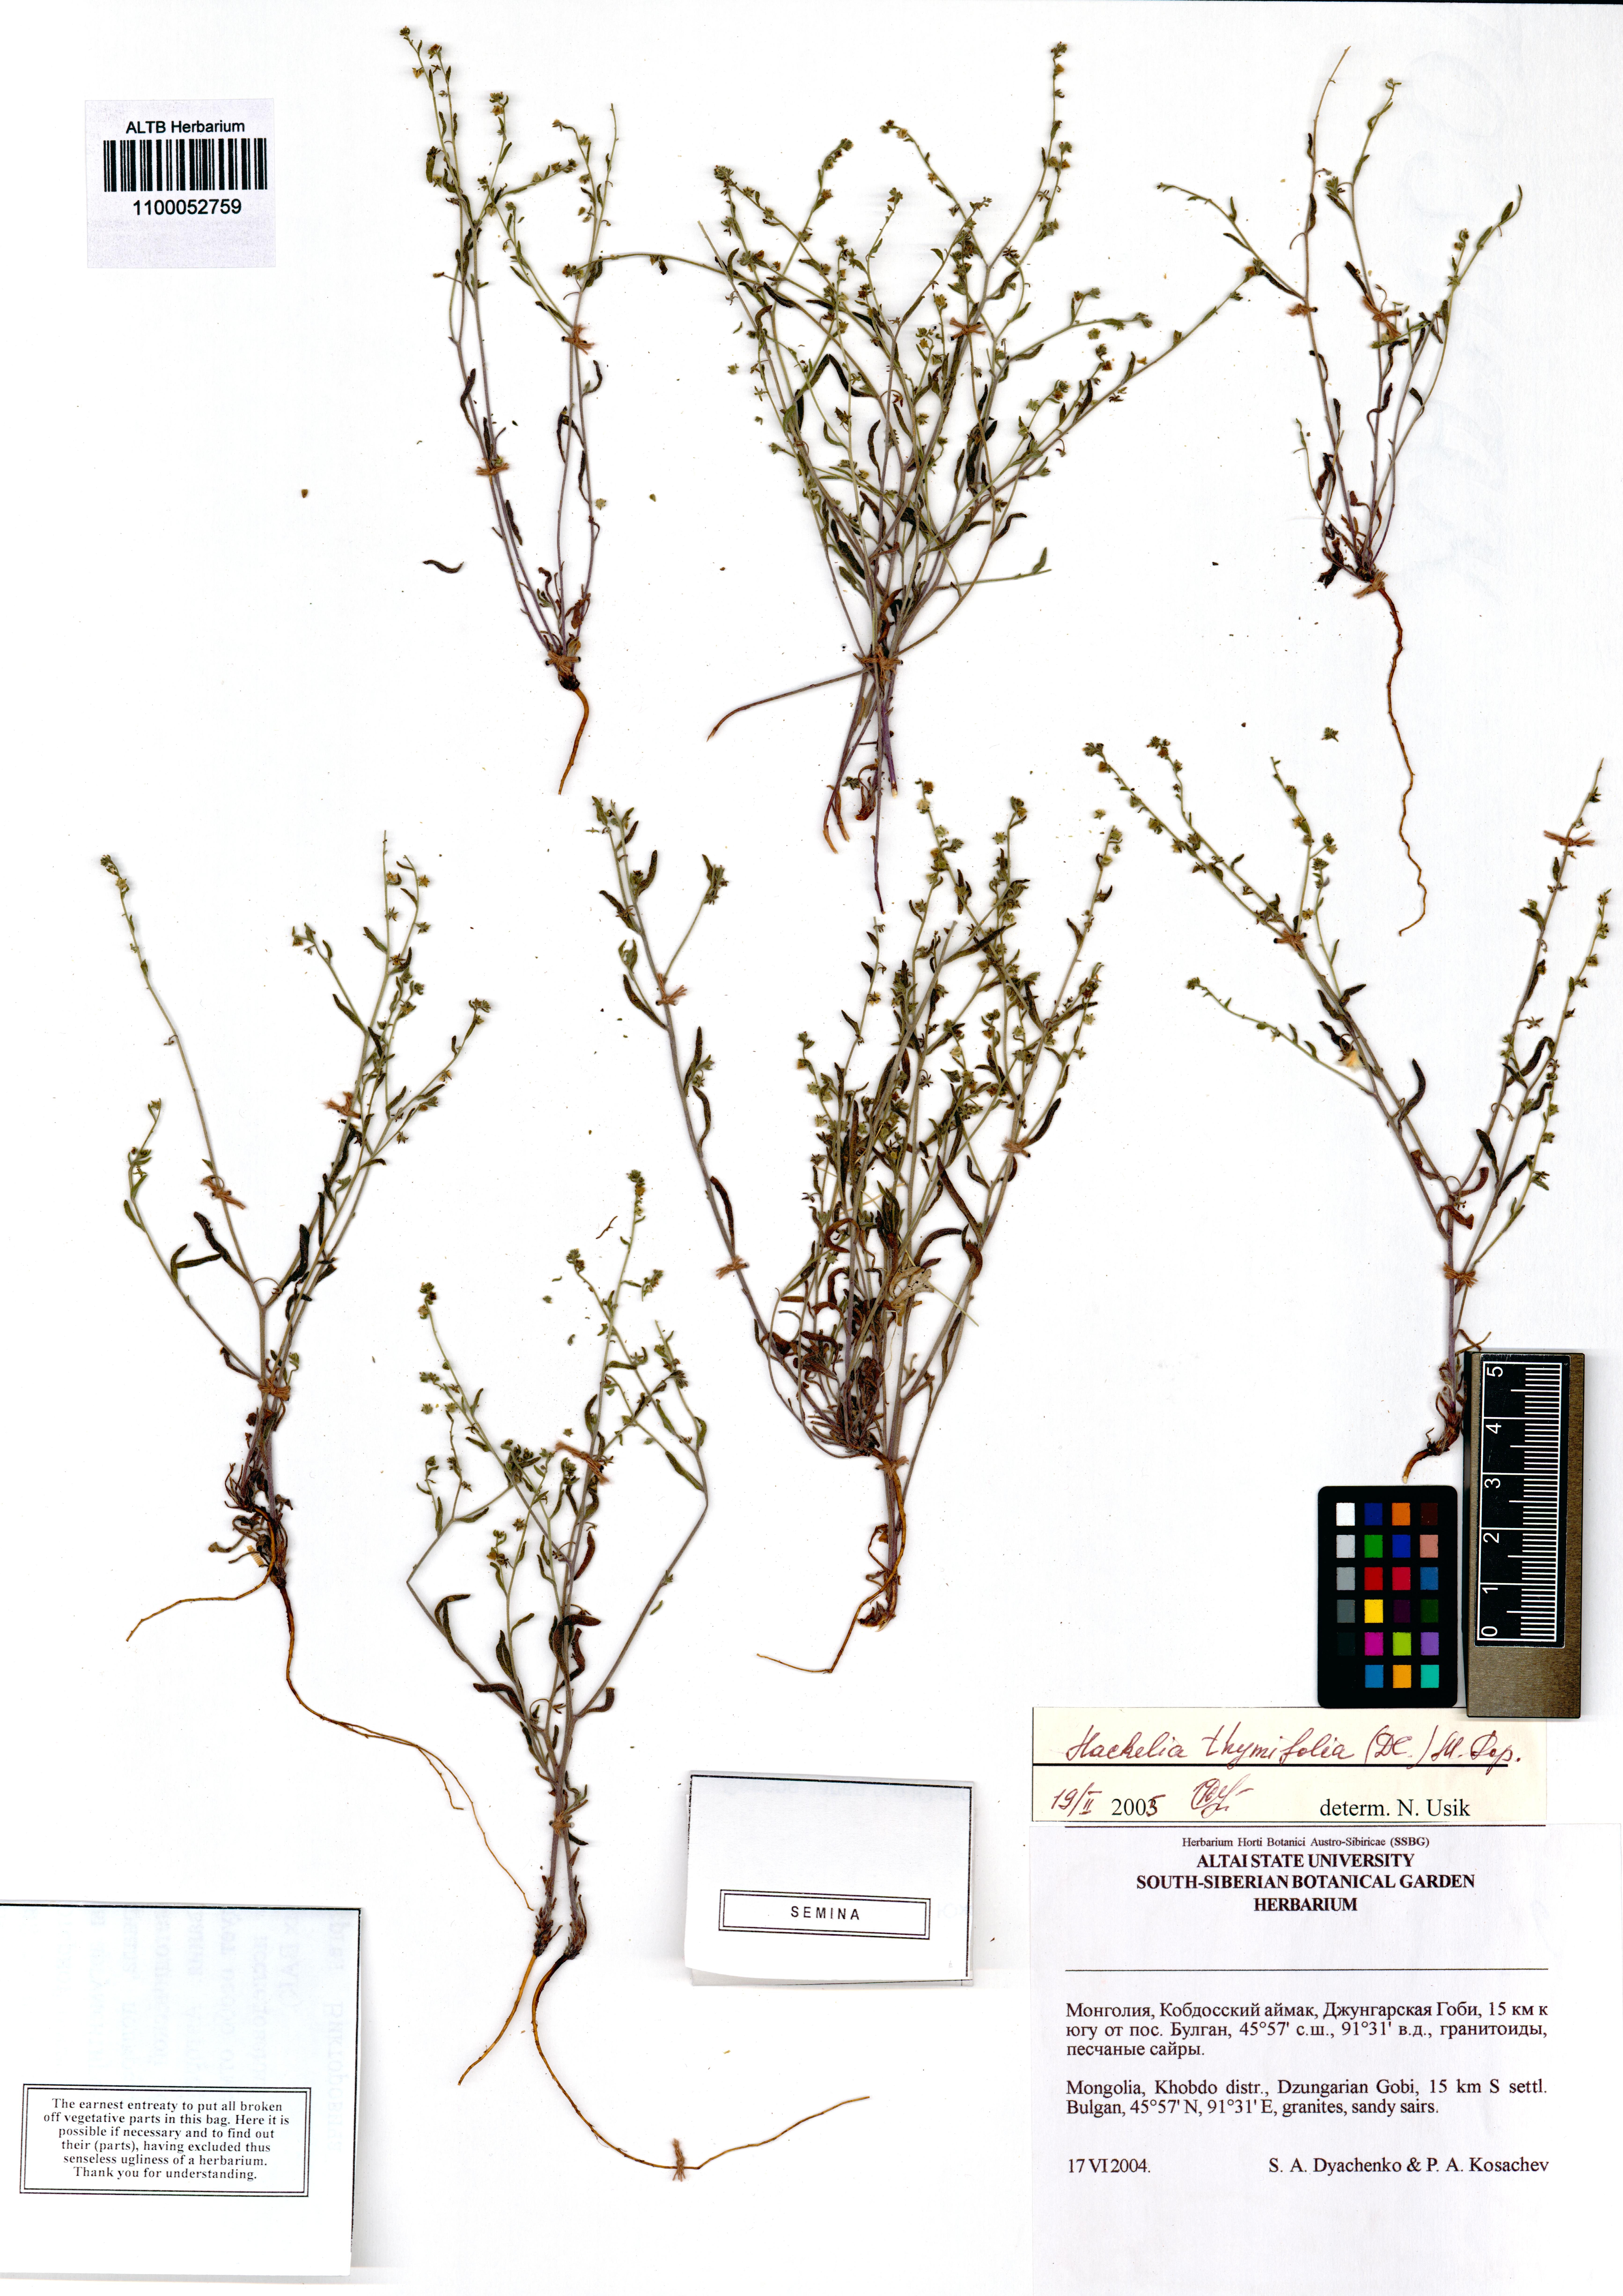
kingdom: Plantae
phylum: Tracheophyta
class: Magnoliopsida
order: Boraginales
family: Boraginaceae
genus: Eritrichium
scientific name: Eritrichium thymifolium
